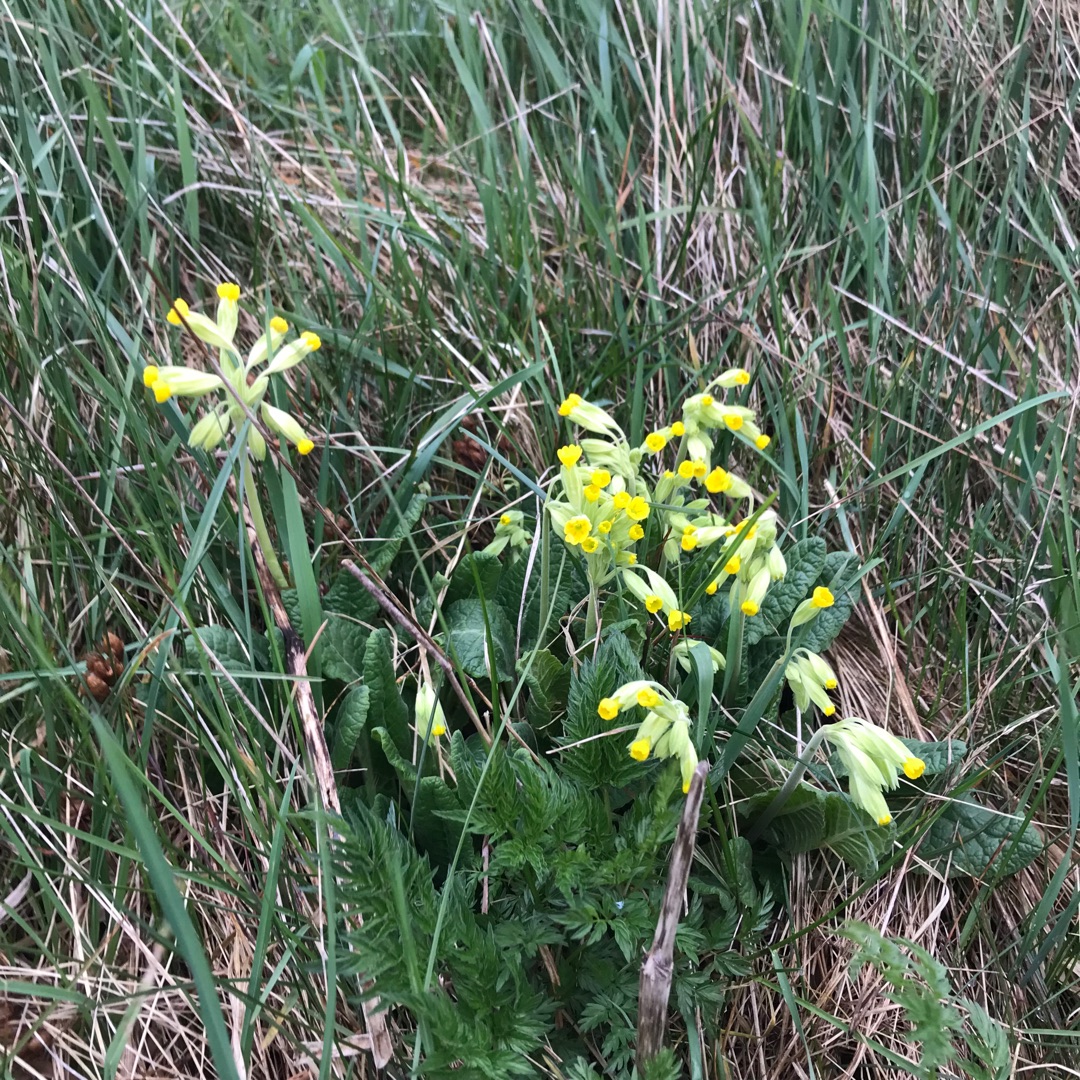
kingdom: Plantae
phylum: Tracheophyta
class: Magnoliopsida
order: Ericales
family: Primulaceae
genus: Primula
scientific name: Primula veris
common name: Hulkravet kodriver
